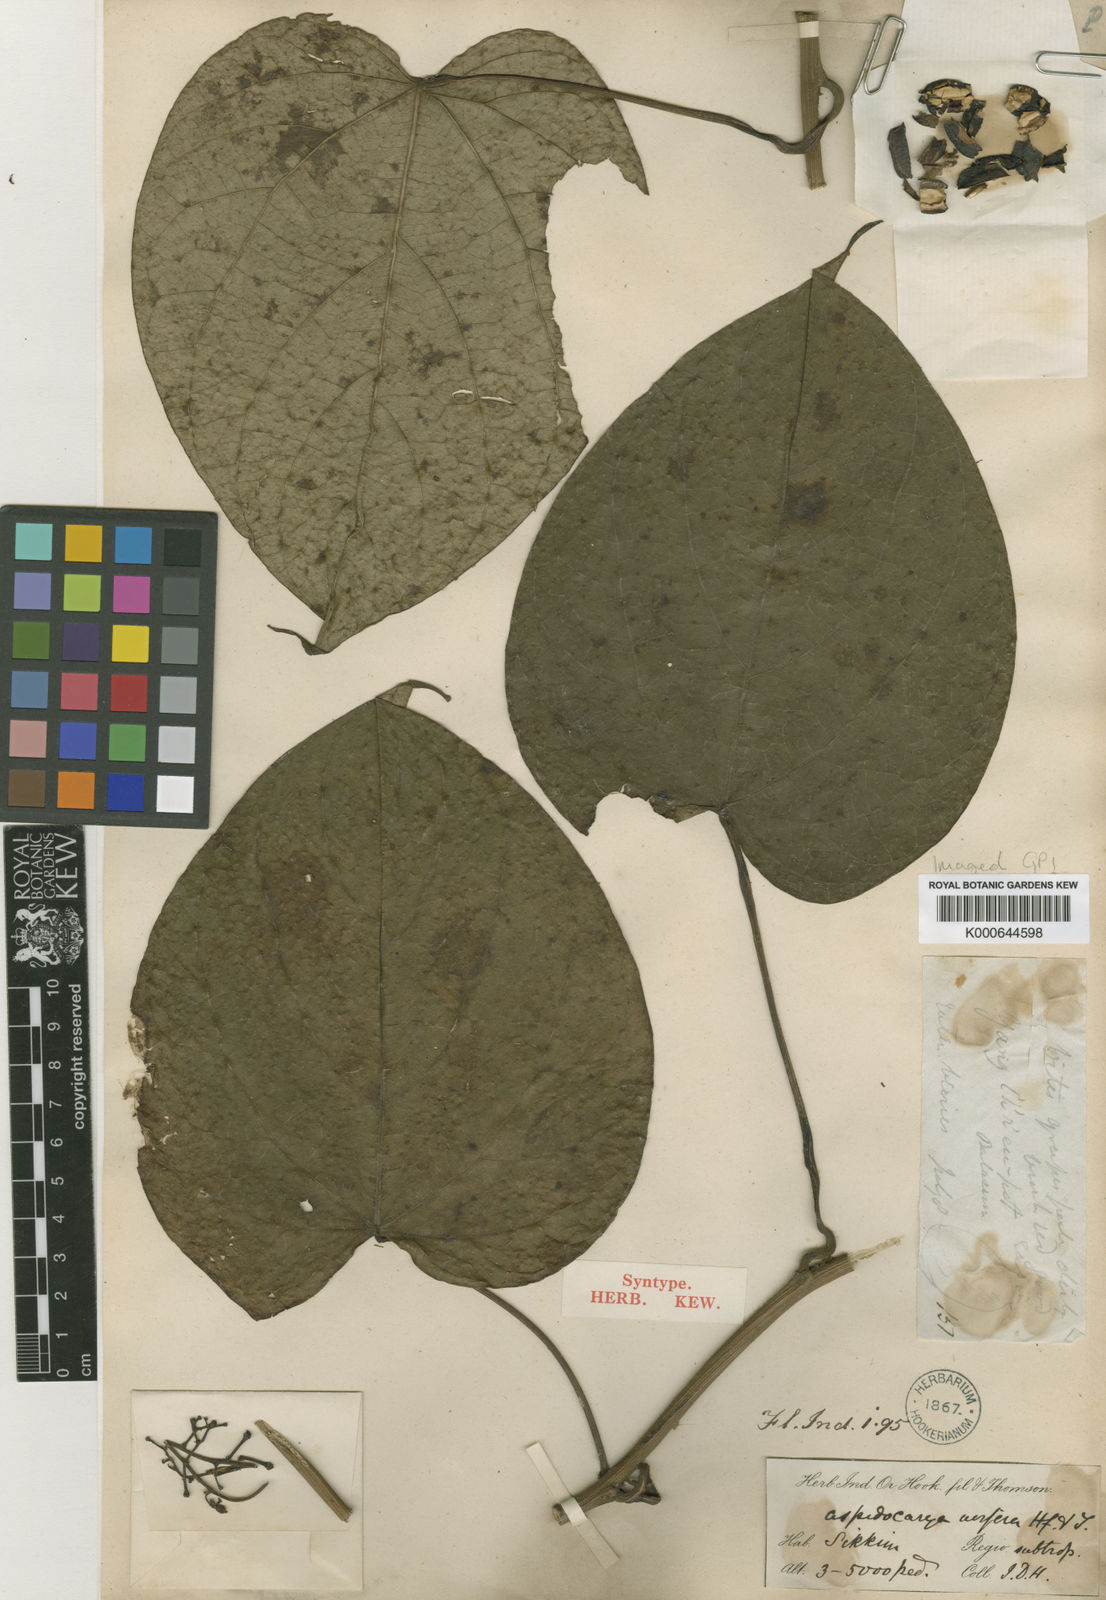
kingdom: Plantae
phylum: Tracheophyta
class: Magnoliopsida
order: Ranunculales
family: Menispermaceae
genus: Aspidocarya
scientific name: Aspidocarya uvifera
